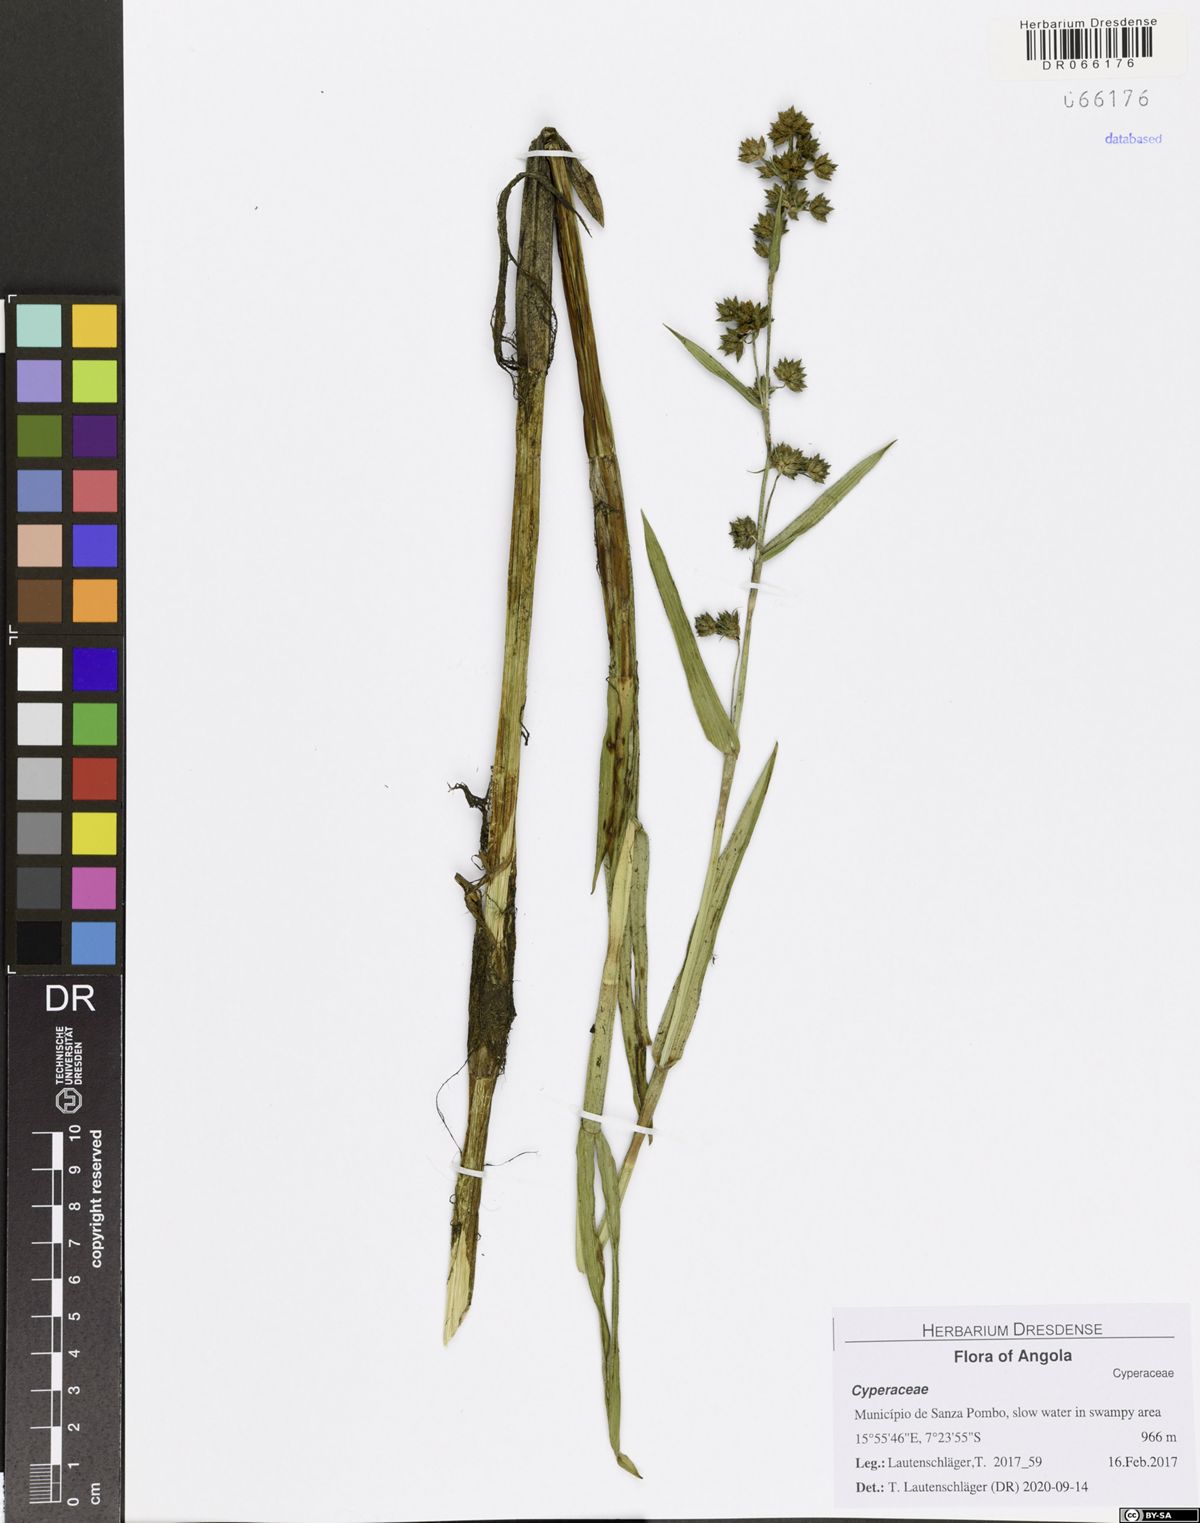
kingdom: Plantae
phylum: Tracheophyta
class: Liliopsida
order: Poales
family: Cyperaceae
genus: Fuirena
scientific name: Fuirena umbellata
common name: Yefen
